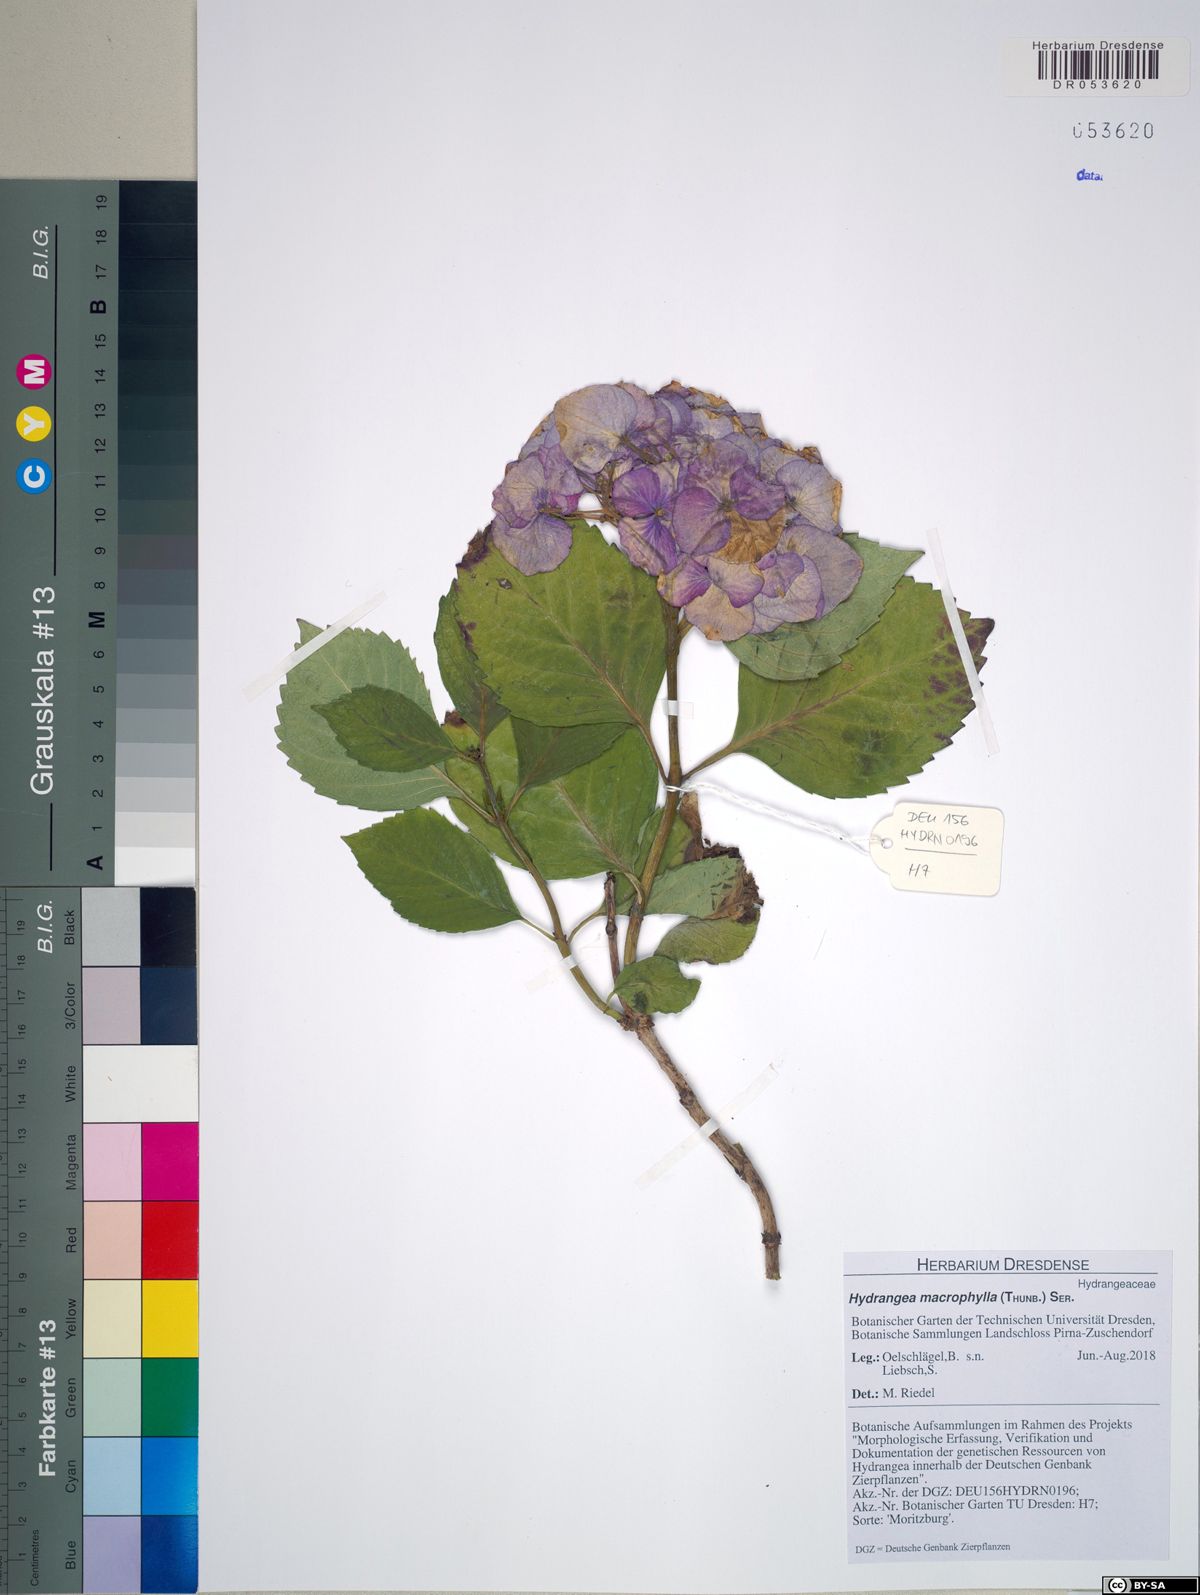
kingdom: Plantae
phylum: Tracheophyta
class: Magnoliopsida
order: Cornales
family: Hydrangeaceae
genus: Hydrangea
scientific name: Hydrangea macrophylla
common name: Hydrangea
